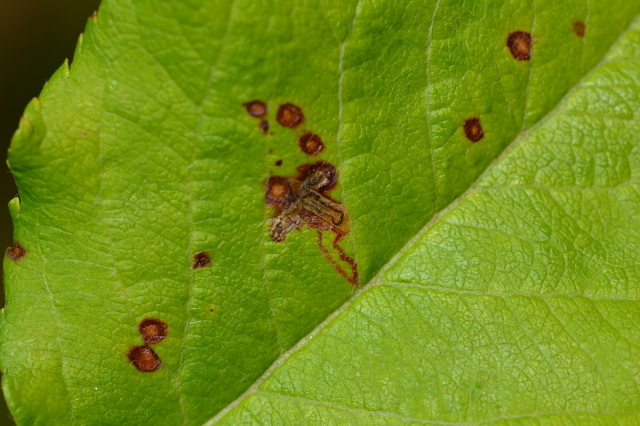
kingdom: Animalia
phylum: Arthropoda
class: Insecta
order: Lepidoptera
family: Nepticulidae
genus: Stigmella
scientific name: Stigmella incognitella
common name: Grey apple pigmy
